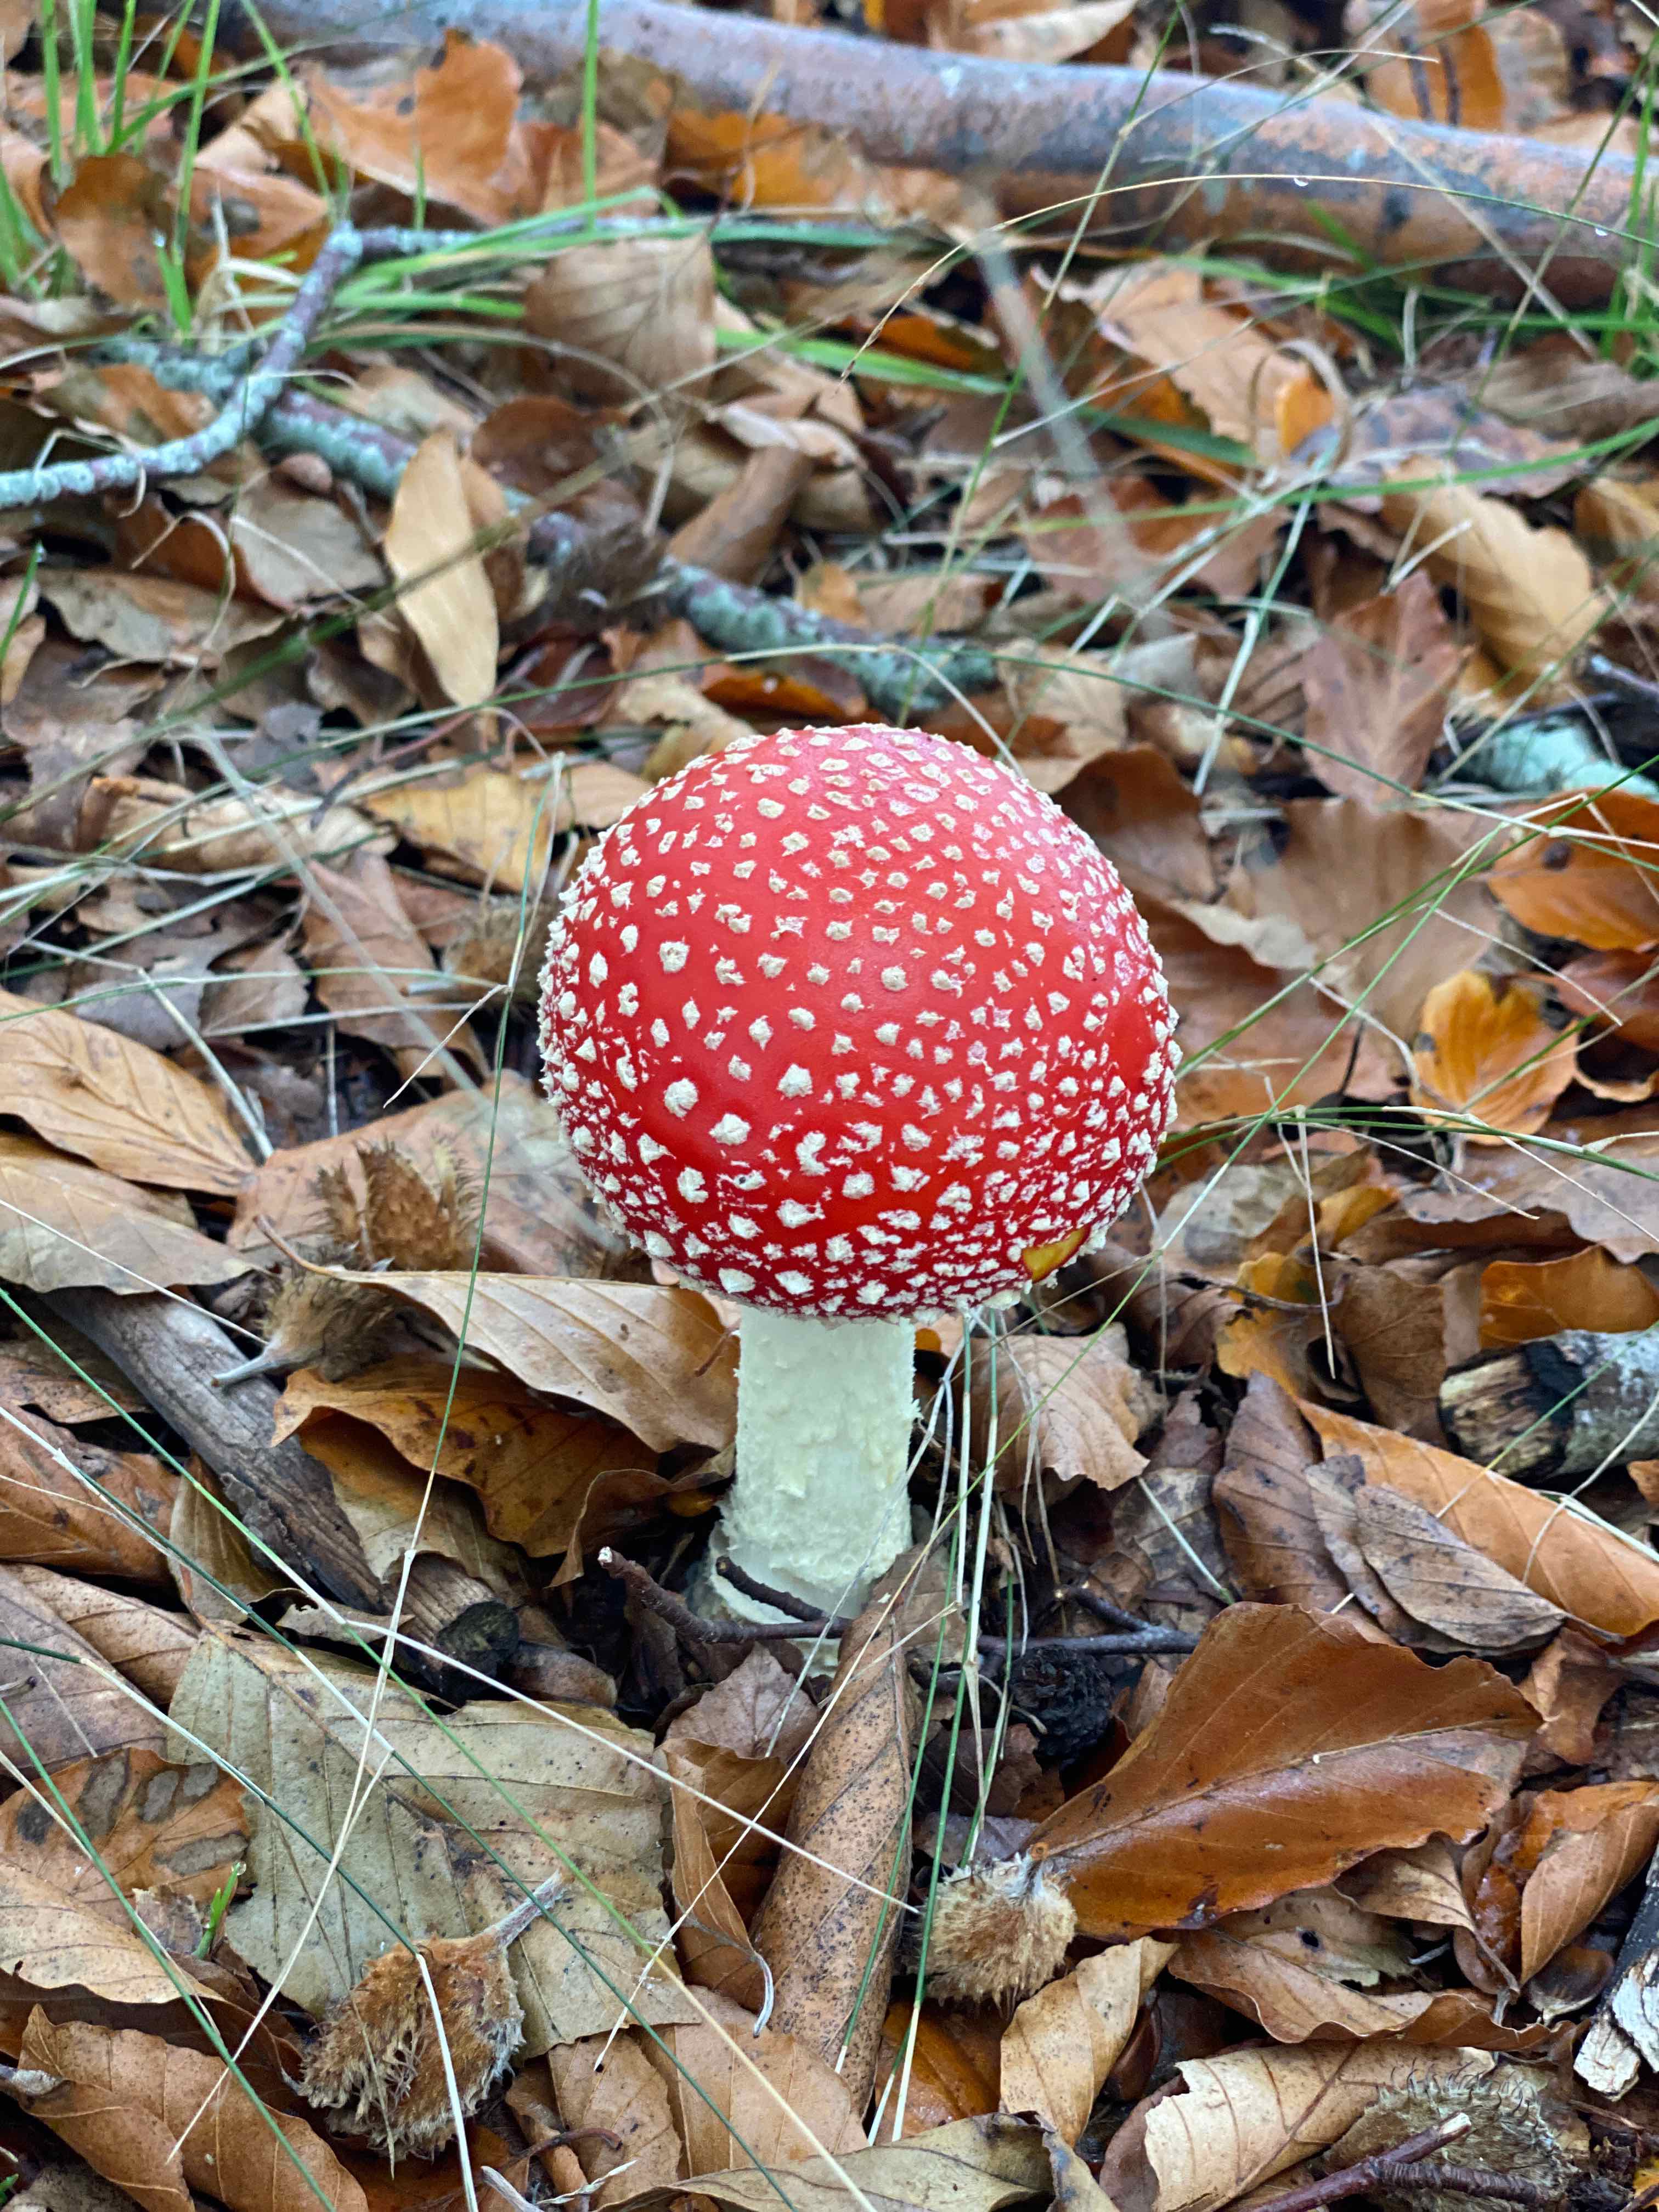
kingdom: Fungi
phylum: Basidiomycota
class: Agaricomycetes
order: Agaricales
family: Amanitaceae
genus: Amanita
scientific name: Amanita muscaria
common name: rød fluesvamp
